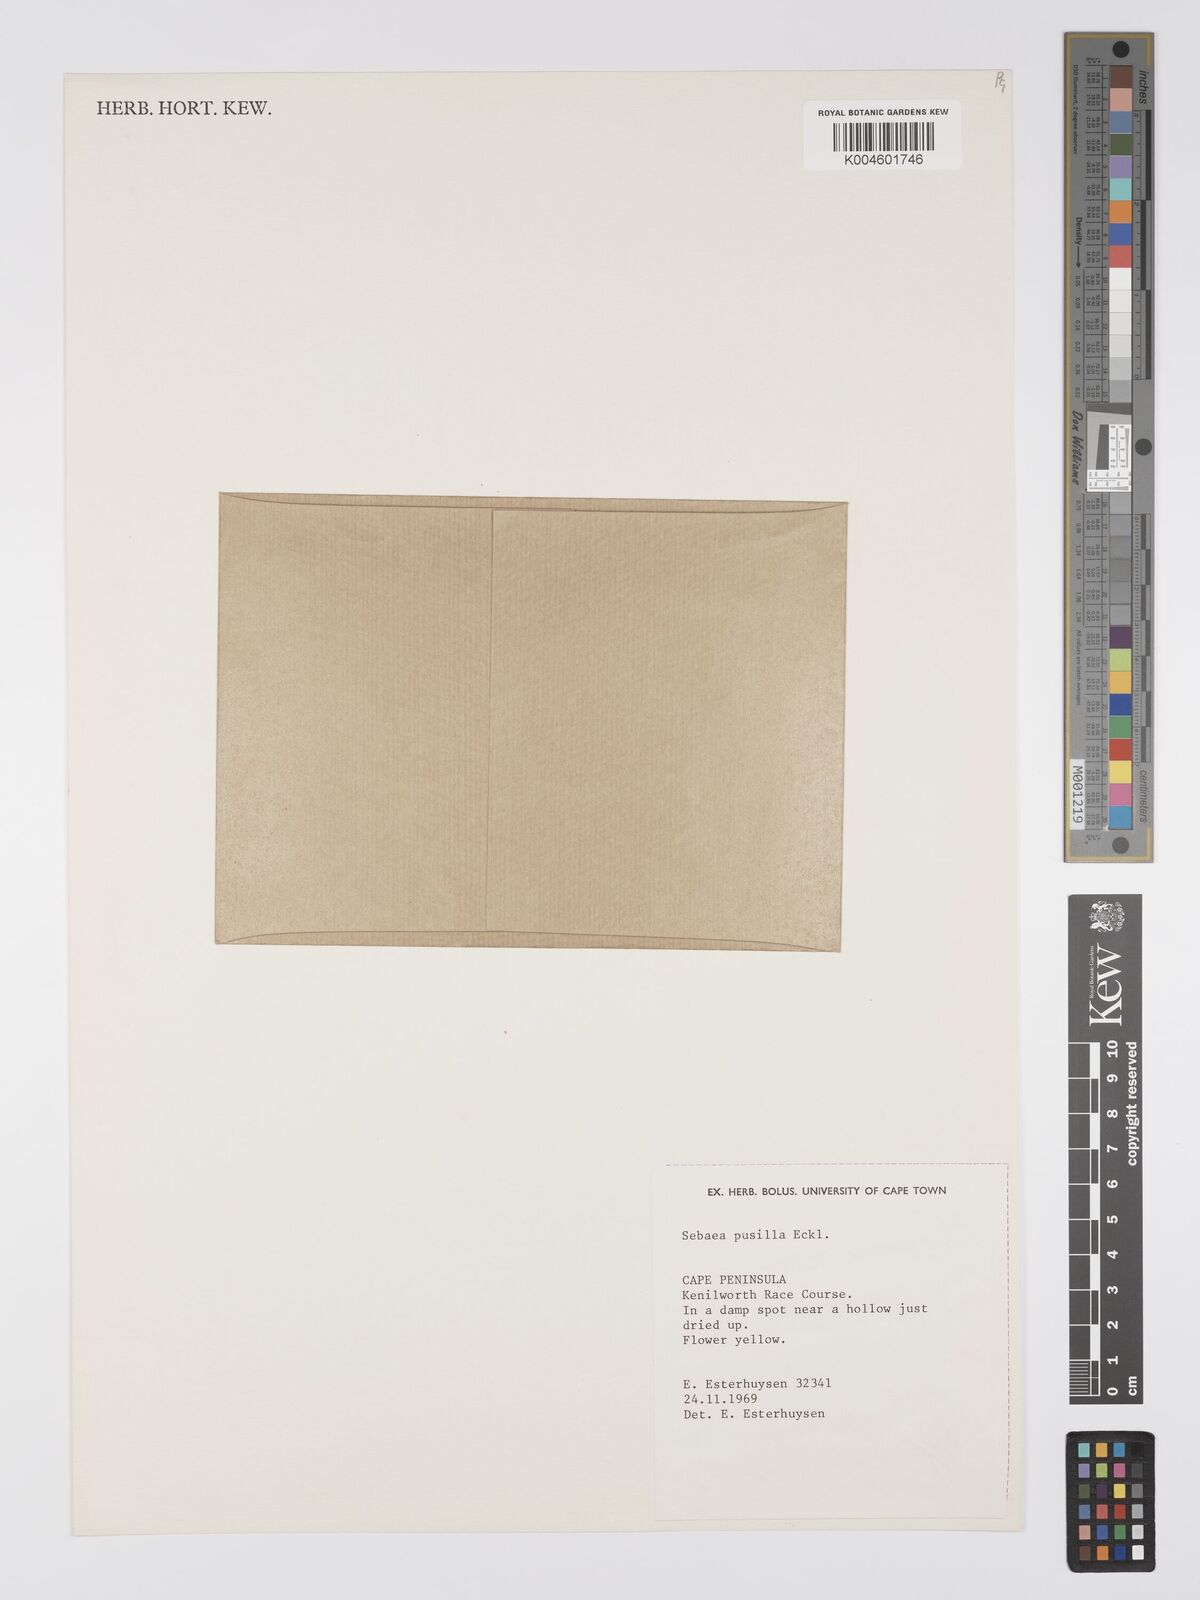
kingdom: Plantae
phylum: Tracheophyta
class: Magnoliopsida
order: Gentianales
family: Gentianaceae
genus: Sebaea
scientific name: Sebaea pusilla
